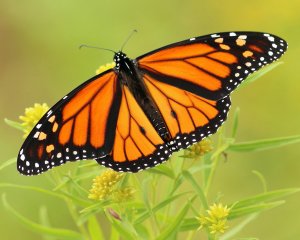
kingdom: Animalia
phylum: Arthropoda
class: Insecta
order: Lepidoptera
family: Nymphalidae
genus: Danaus
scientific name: Danaus plexippus
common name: Monarch
